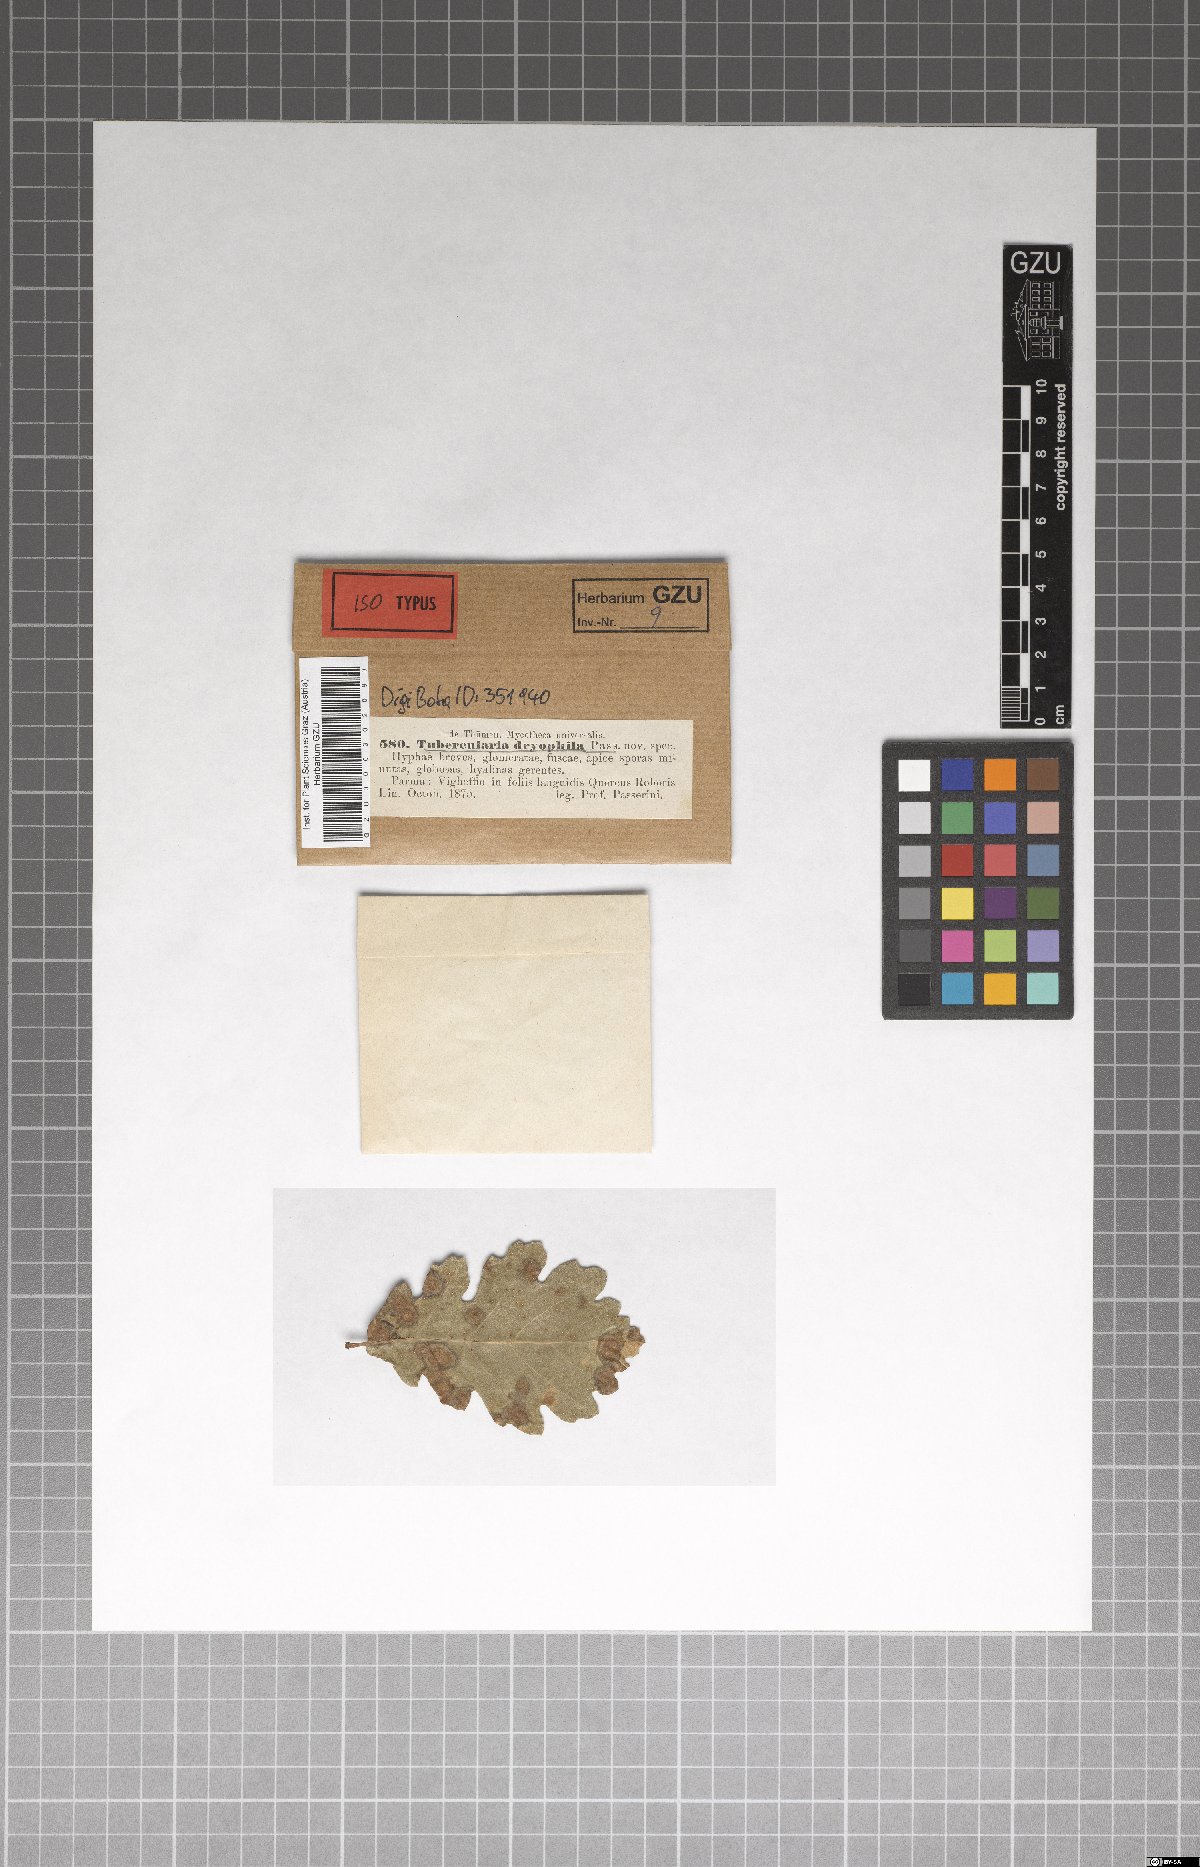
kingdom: Fungi
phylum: Ascomycota
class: Leotiomycetes
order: Helotiales
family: Mollisiaceae
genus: Cystodendron
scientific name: Cystodendron dryophilum
